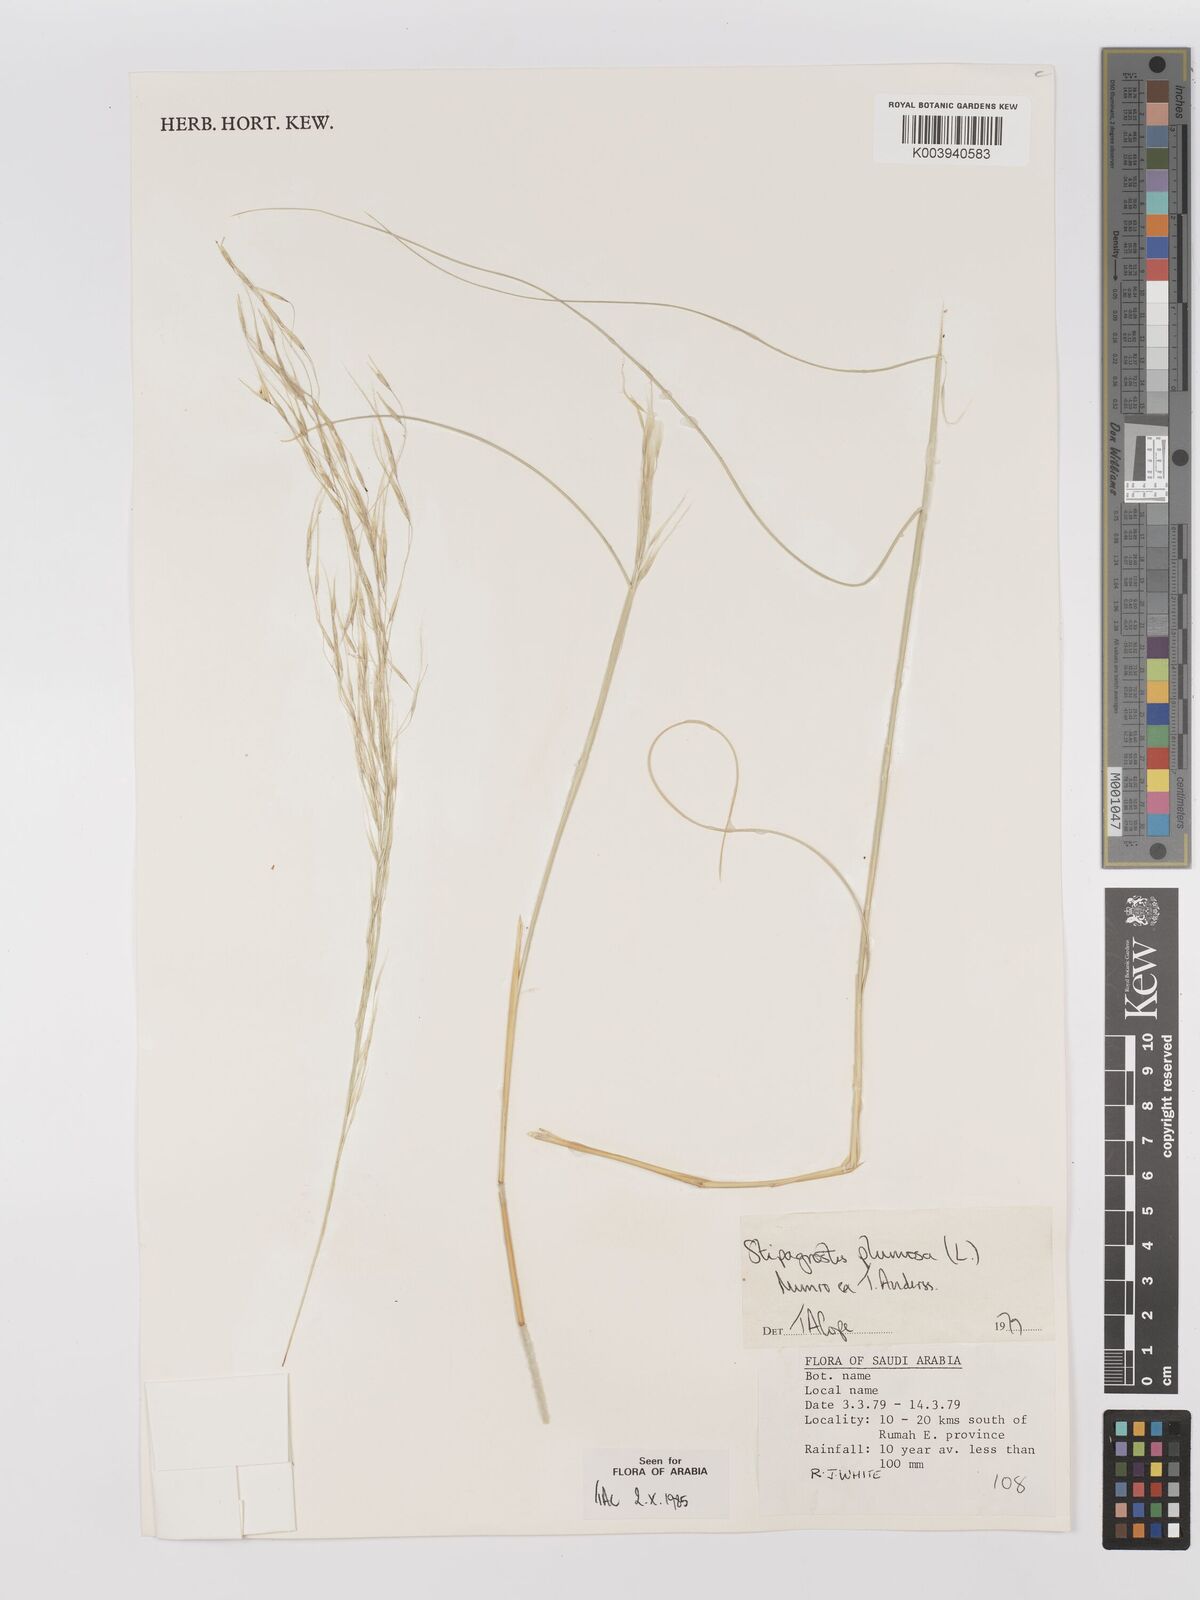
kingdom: Plantae
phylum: Tracheophyta
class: Liliopsida
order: Poales
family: Poaceae
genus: Stipagrostis
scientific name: Stipagrostis plumosa
